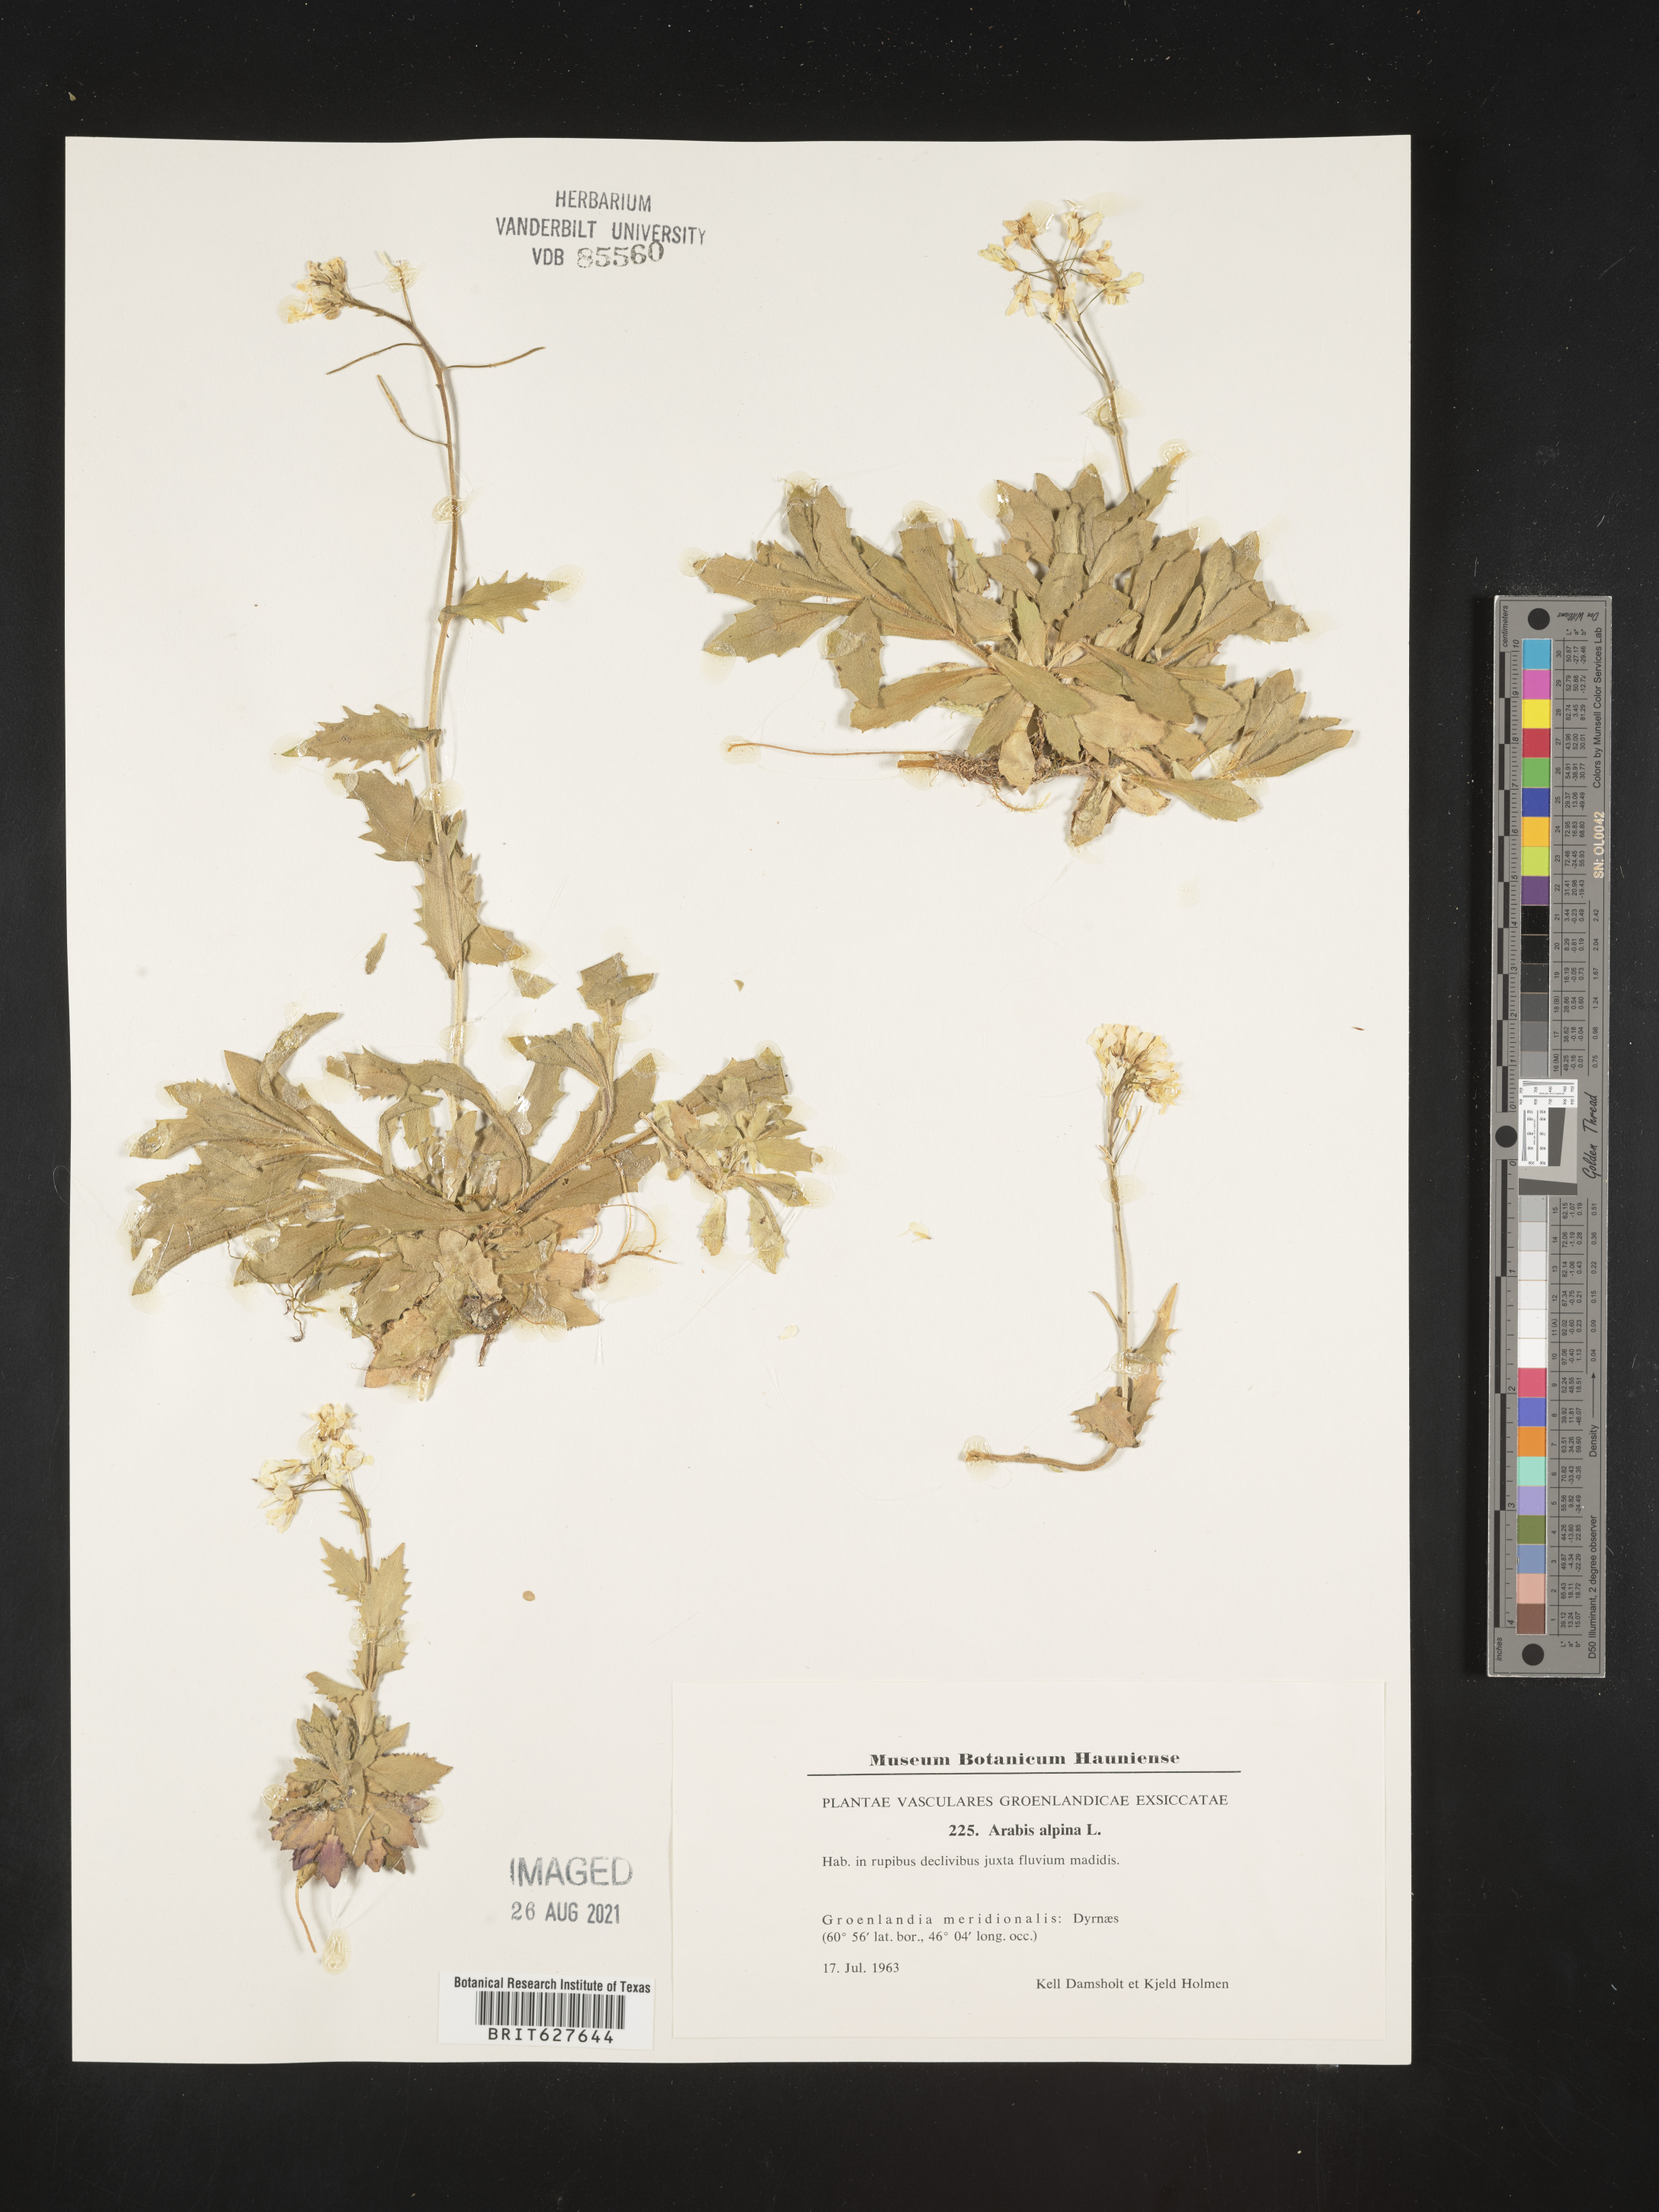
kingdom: Plantae
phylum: Tracheophyta
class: Magnoliopsida
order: Brassicales
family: Brassicaceae
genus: Arabis
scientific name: Arabis alpina
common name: Alpine rock-cress
